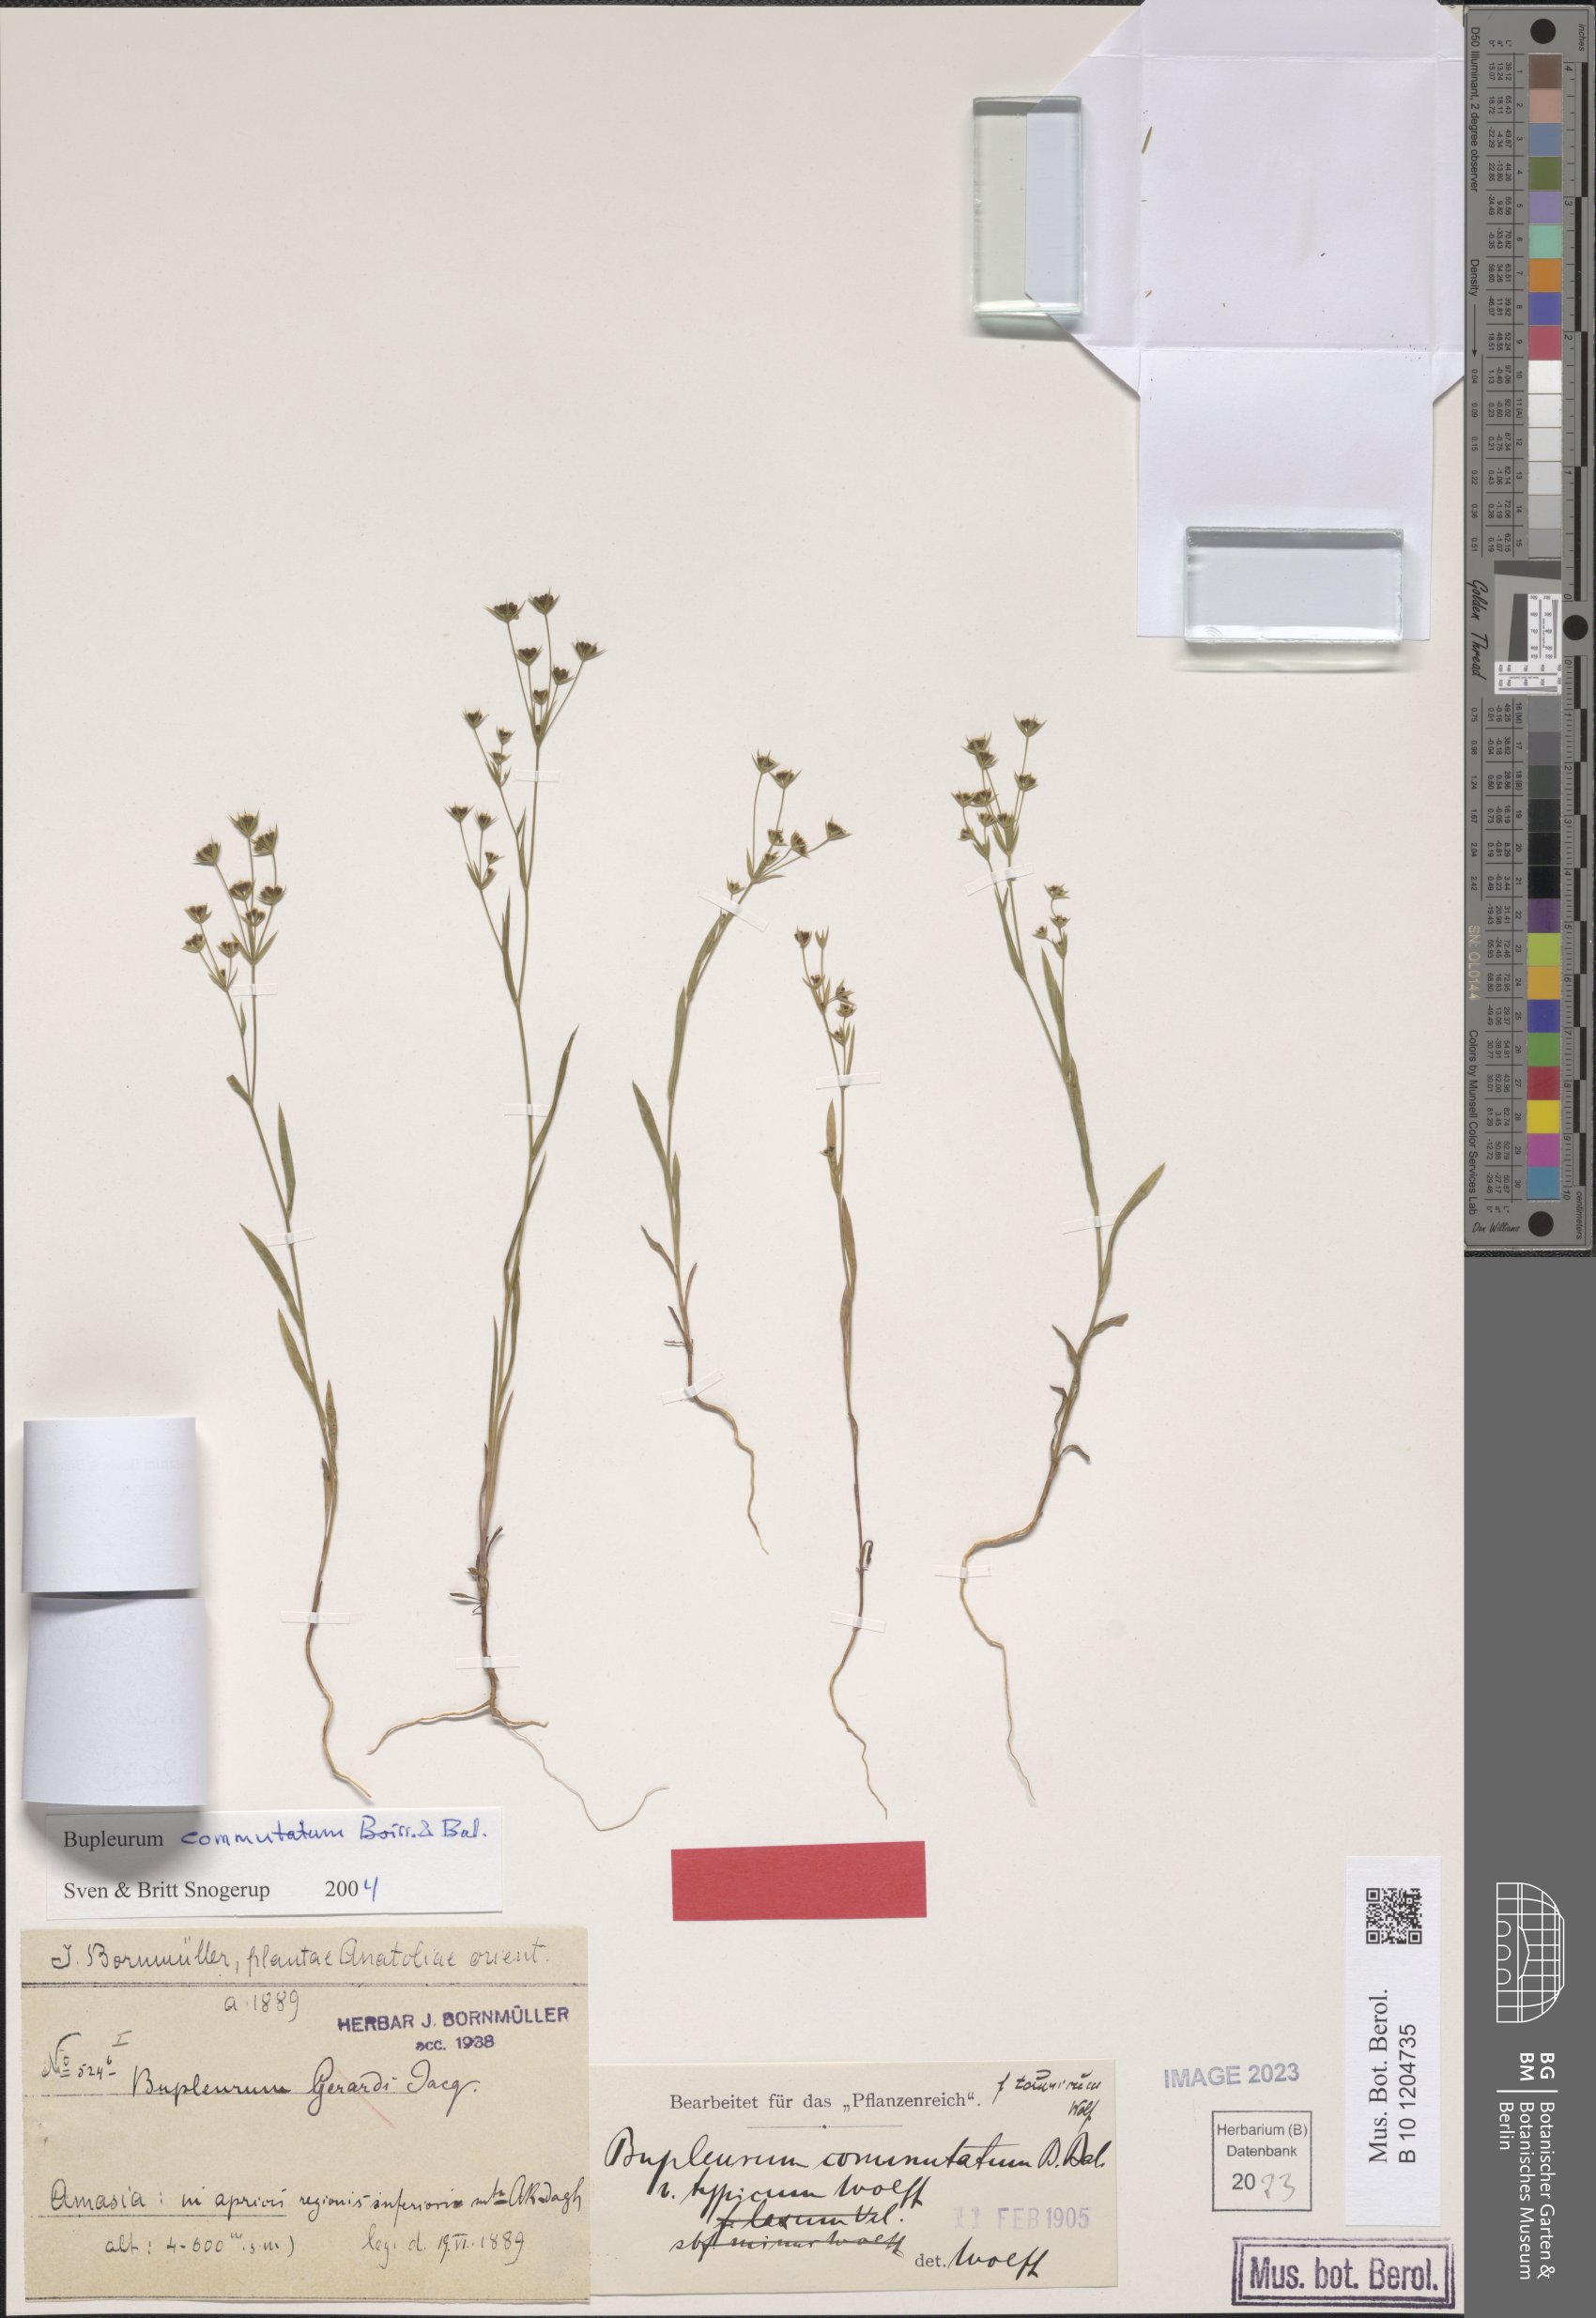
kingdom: Plantae
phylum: Tracheophyta
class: Magnoliopsida
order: Apiales
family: Apiaceae
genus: Bupleurum
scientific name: Bupleurum gerardi
